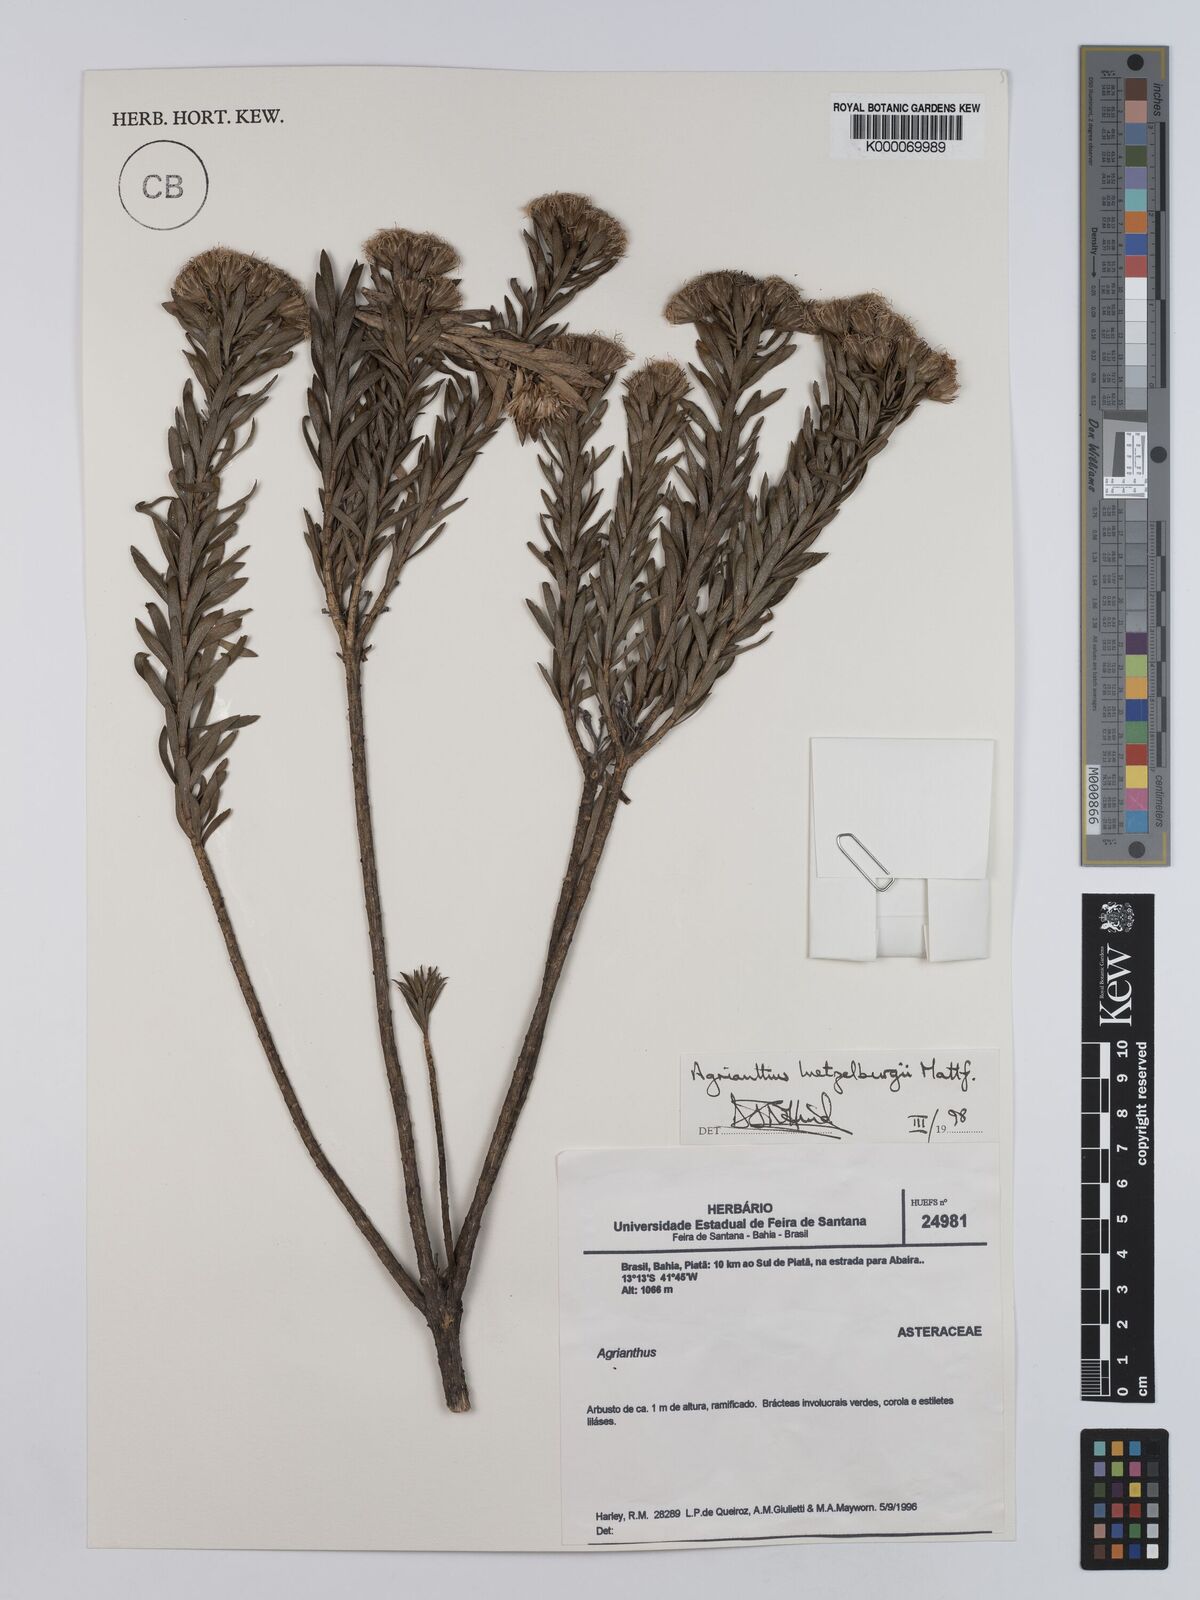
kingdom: Plantae
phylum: Tracheophyta
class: Magnoliopsida
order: Asterales
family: Asteraceae
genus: Agrianthus
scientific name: Agrianthus
